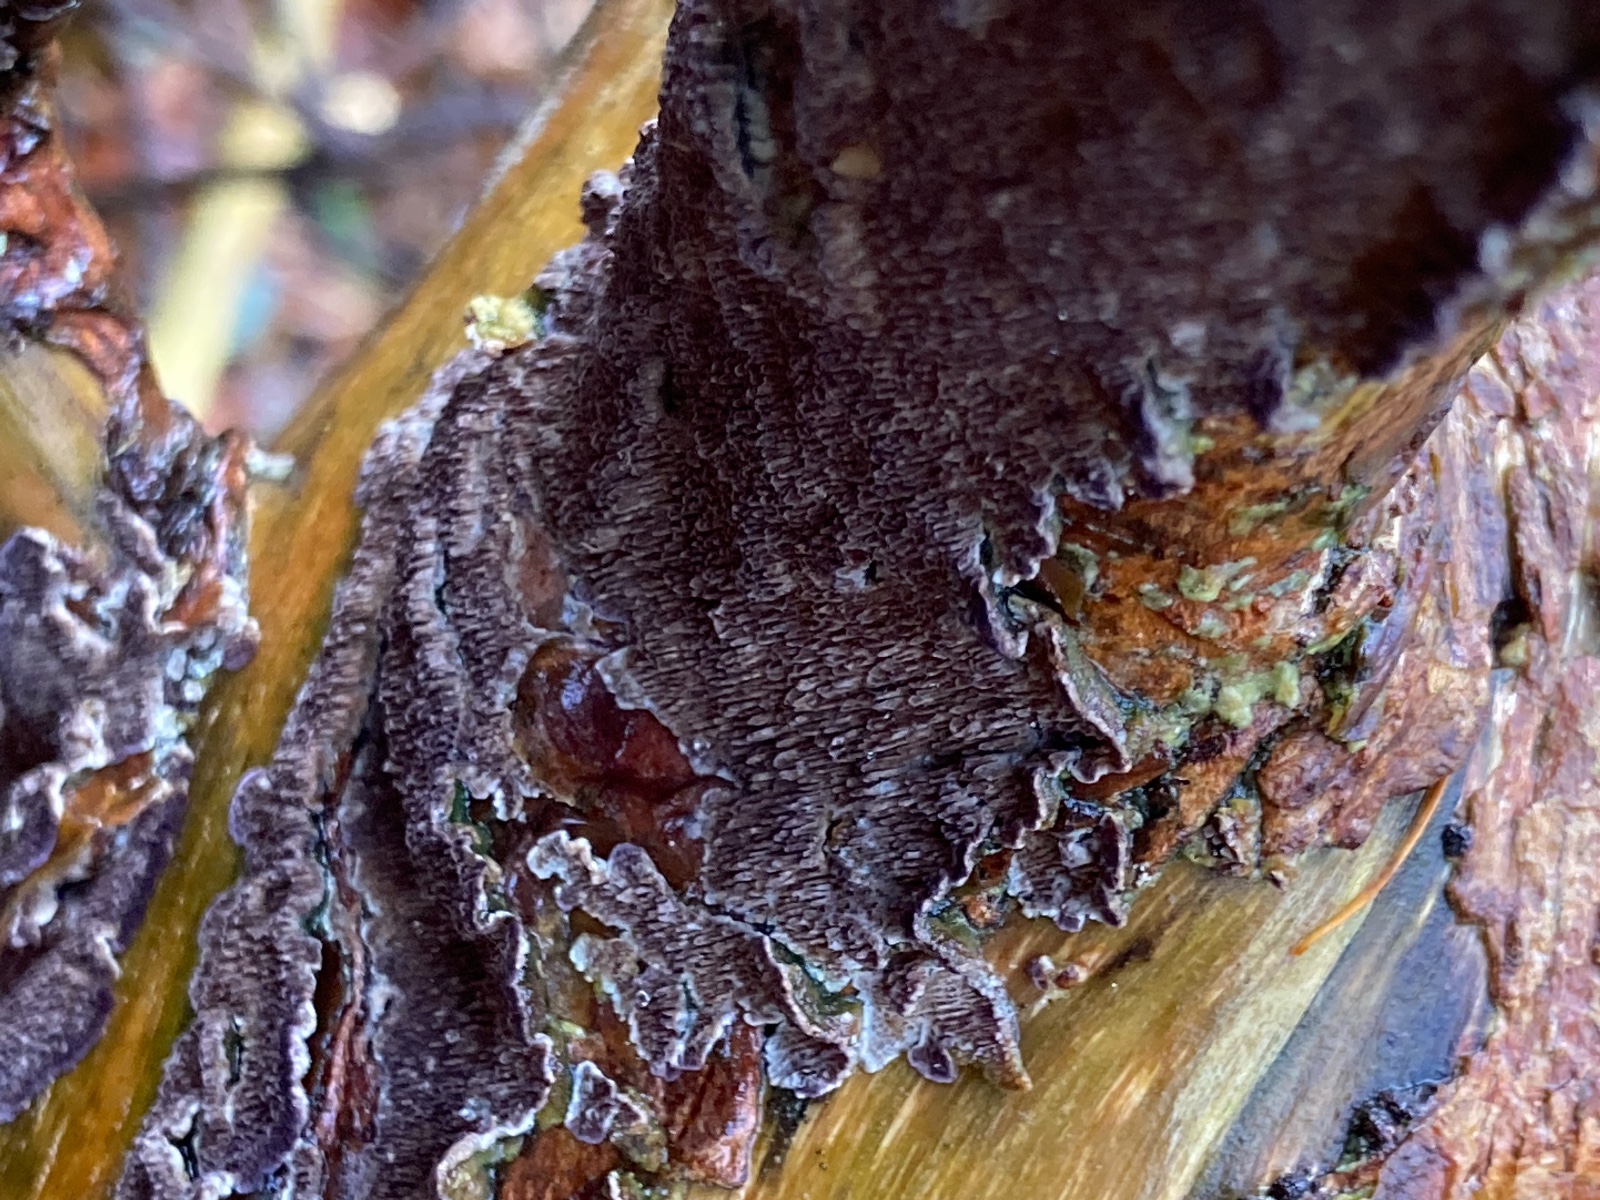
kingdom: Fungi
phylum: Basidiomycota
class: Agaricomycetes
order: Hymenochaetales
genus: Trichaptum
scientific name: Trichaptum fuscoviolaceum
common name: tandet violporesvamp
